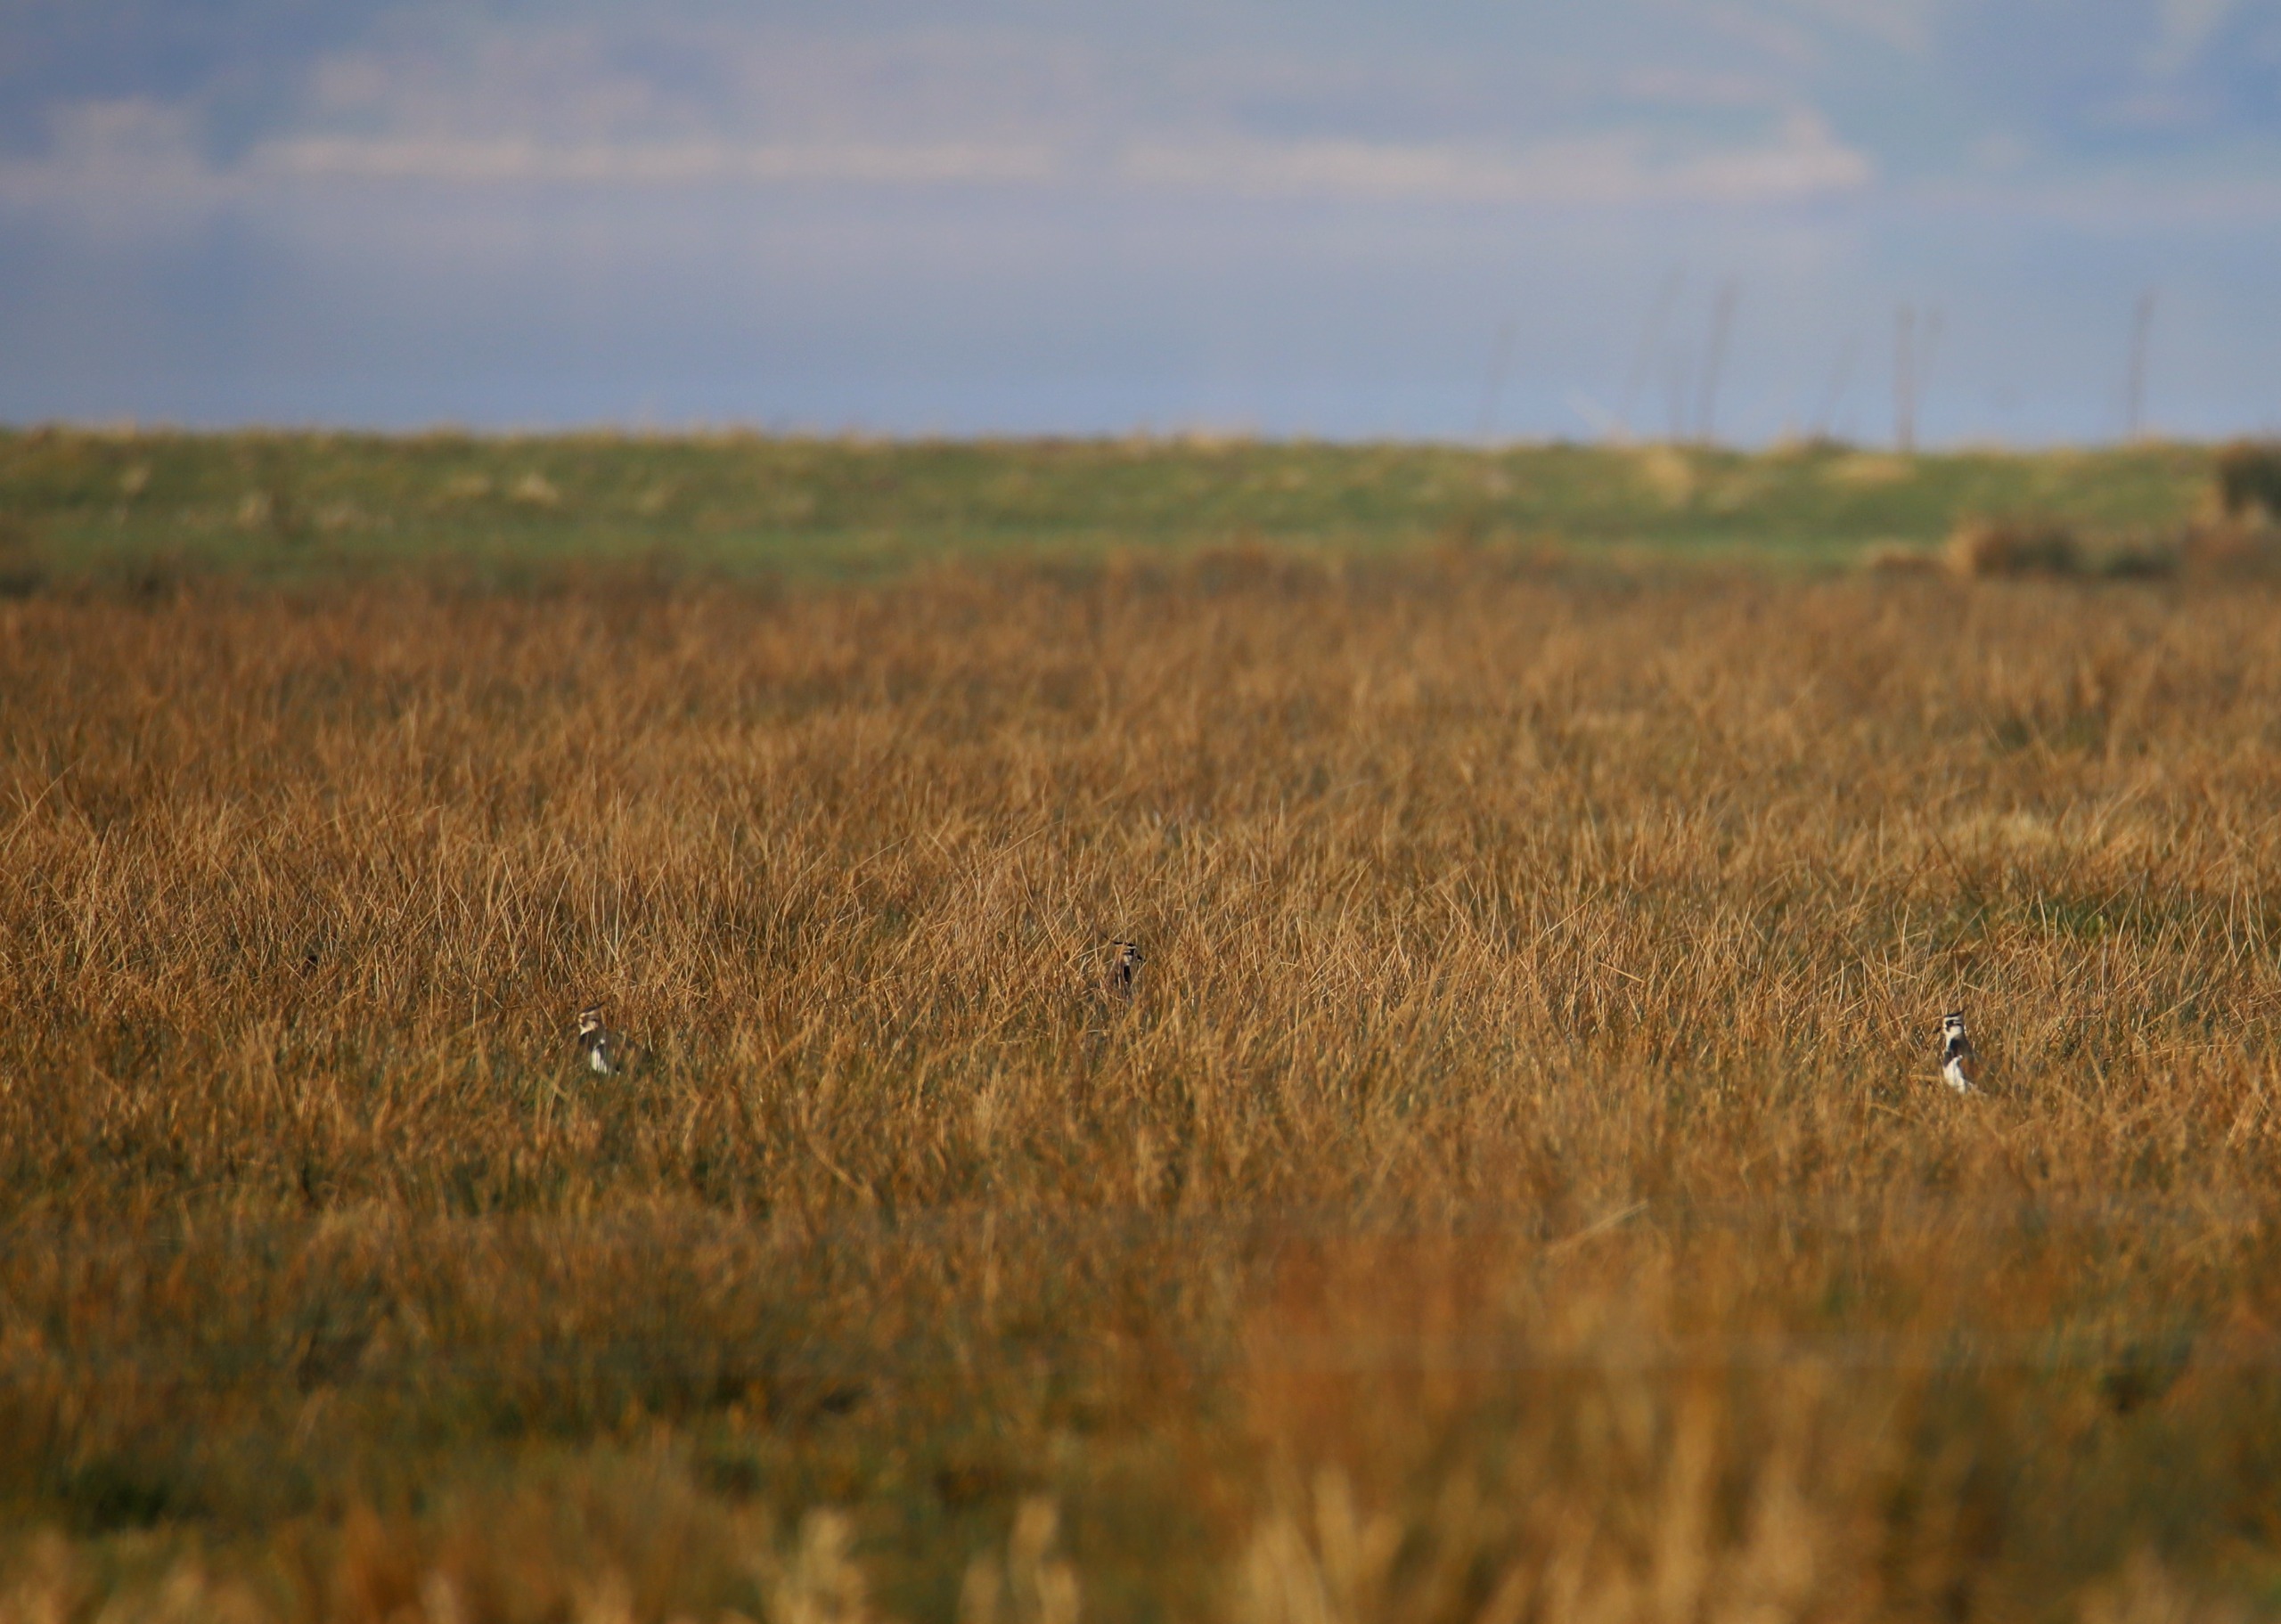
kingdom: Animalia
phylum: Chordata
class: Aves
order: Charadriiformes
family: Charadriidae
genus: Vanellus
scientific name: Vanellus vanellus
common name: Vibe
